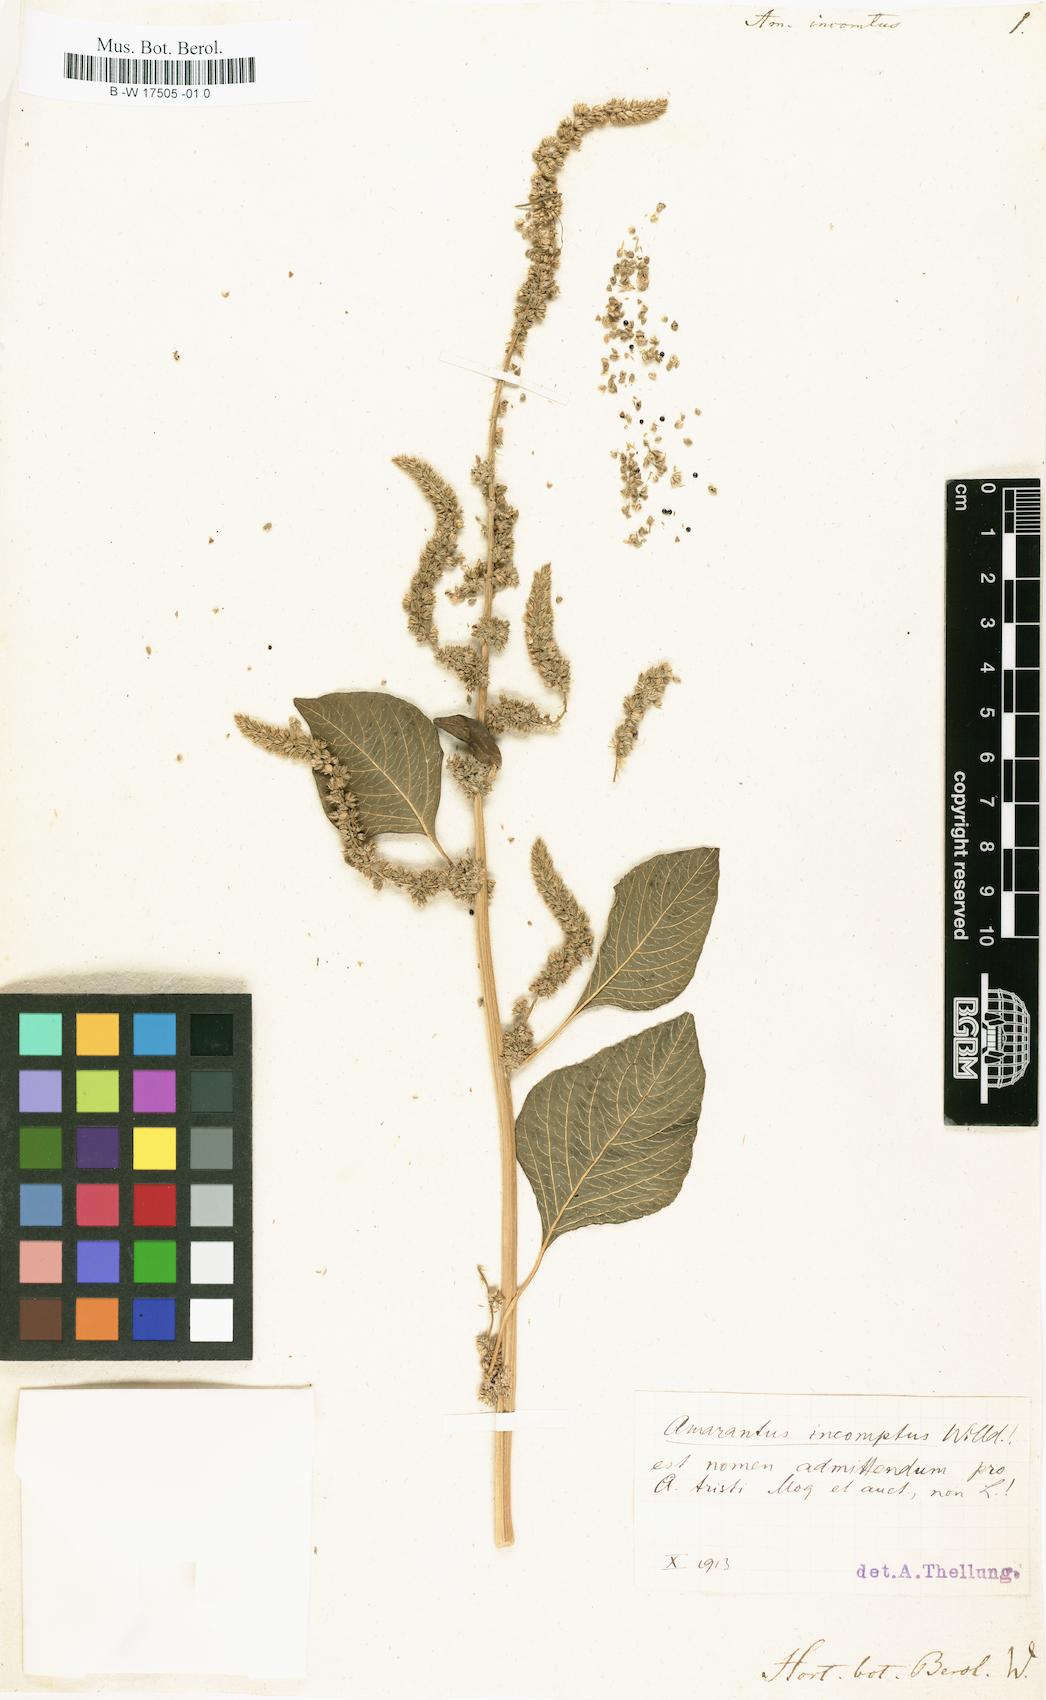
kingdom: Plantae
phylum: Tracheophyta
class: Magnoliopsida
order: Caryophyllales
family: Amaranthaceae
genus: Amaranthus
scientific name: Amaranthus dubius
